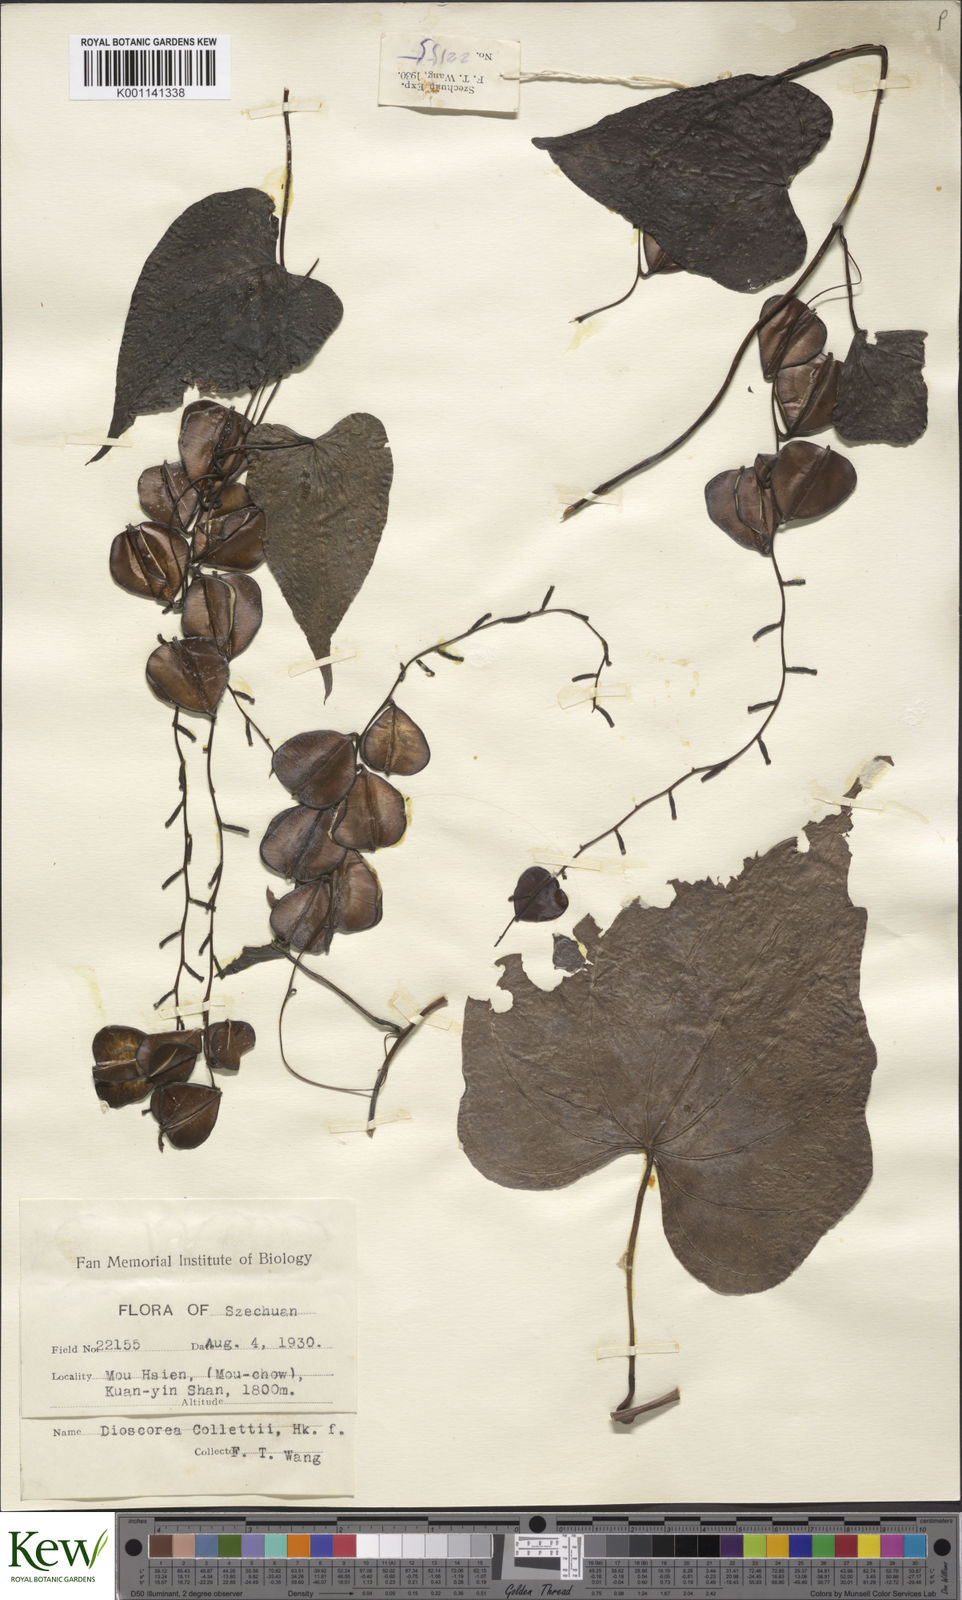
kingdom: Plantae
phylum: Tracheophyta
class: Liliopsida
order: Dioscoreales
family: Dioscoreaceae
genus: Dioscorea
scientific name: Dioscorea collettii
